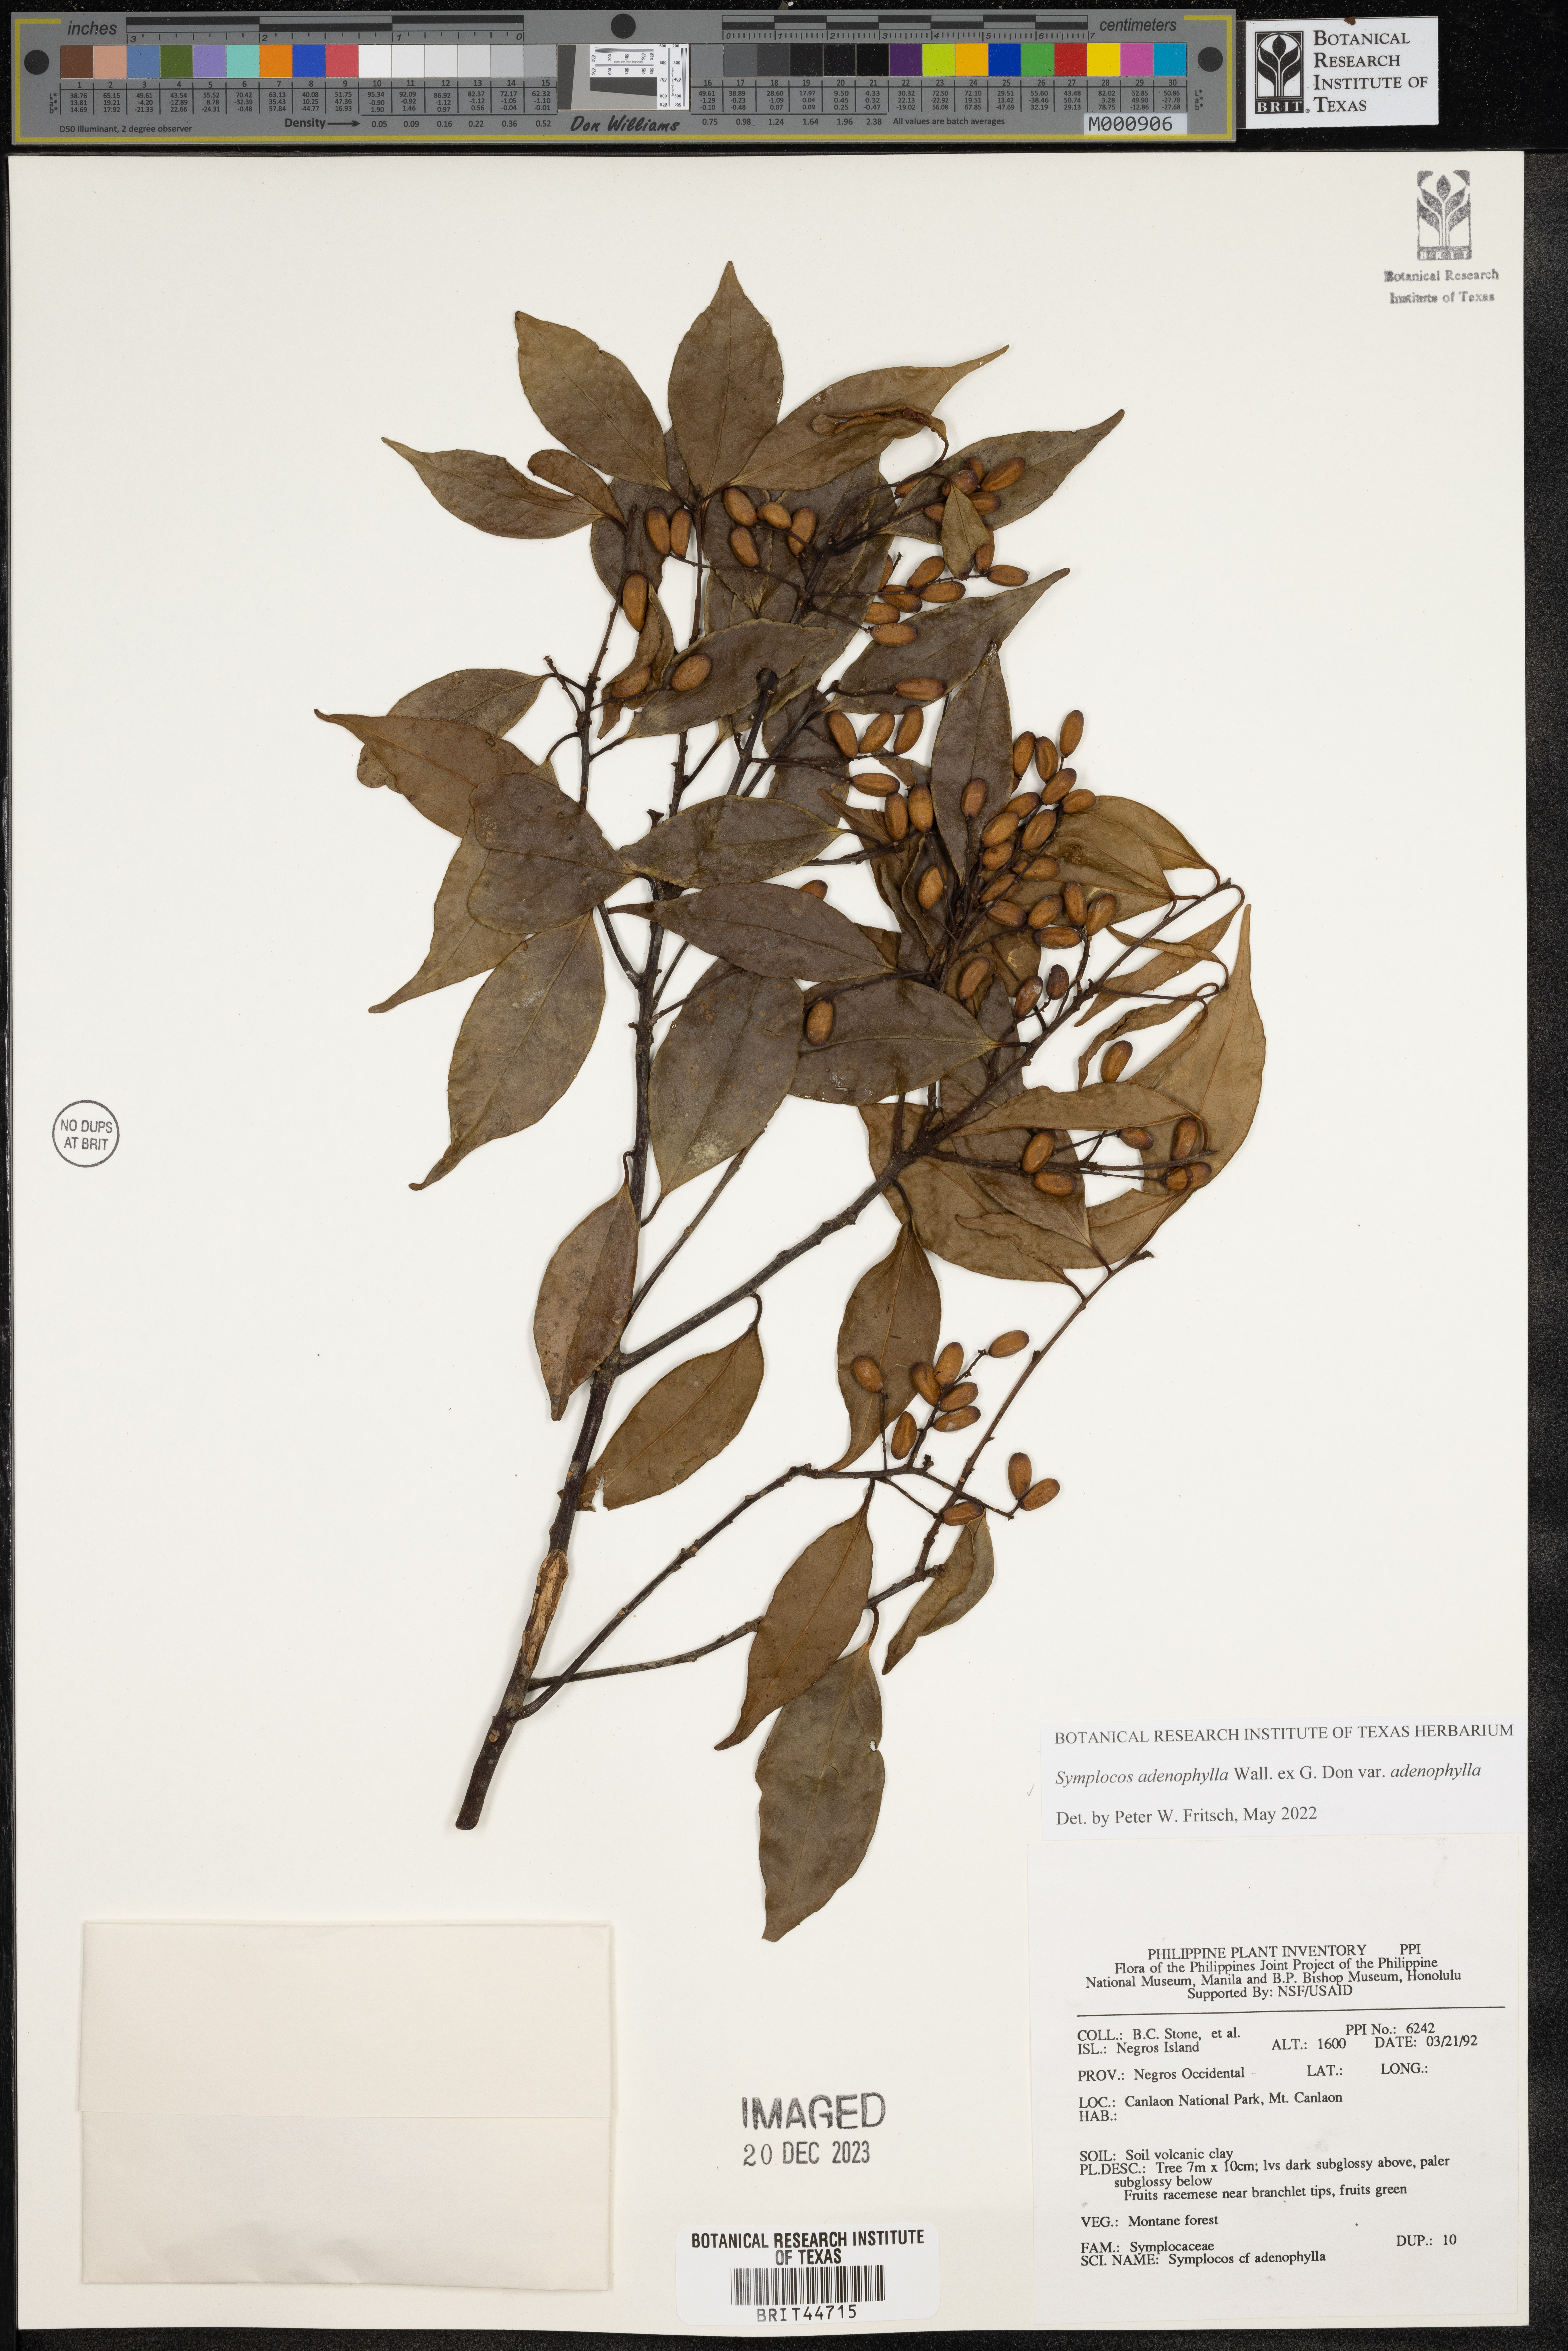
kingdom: Plantae
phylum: Tracheophyta
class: Magnoliopsida
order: Ericales
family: Symplocaceae
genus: Symplocos
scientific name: Symplocos adenophylla
